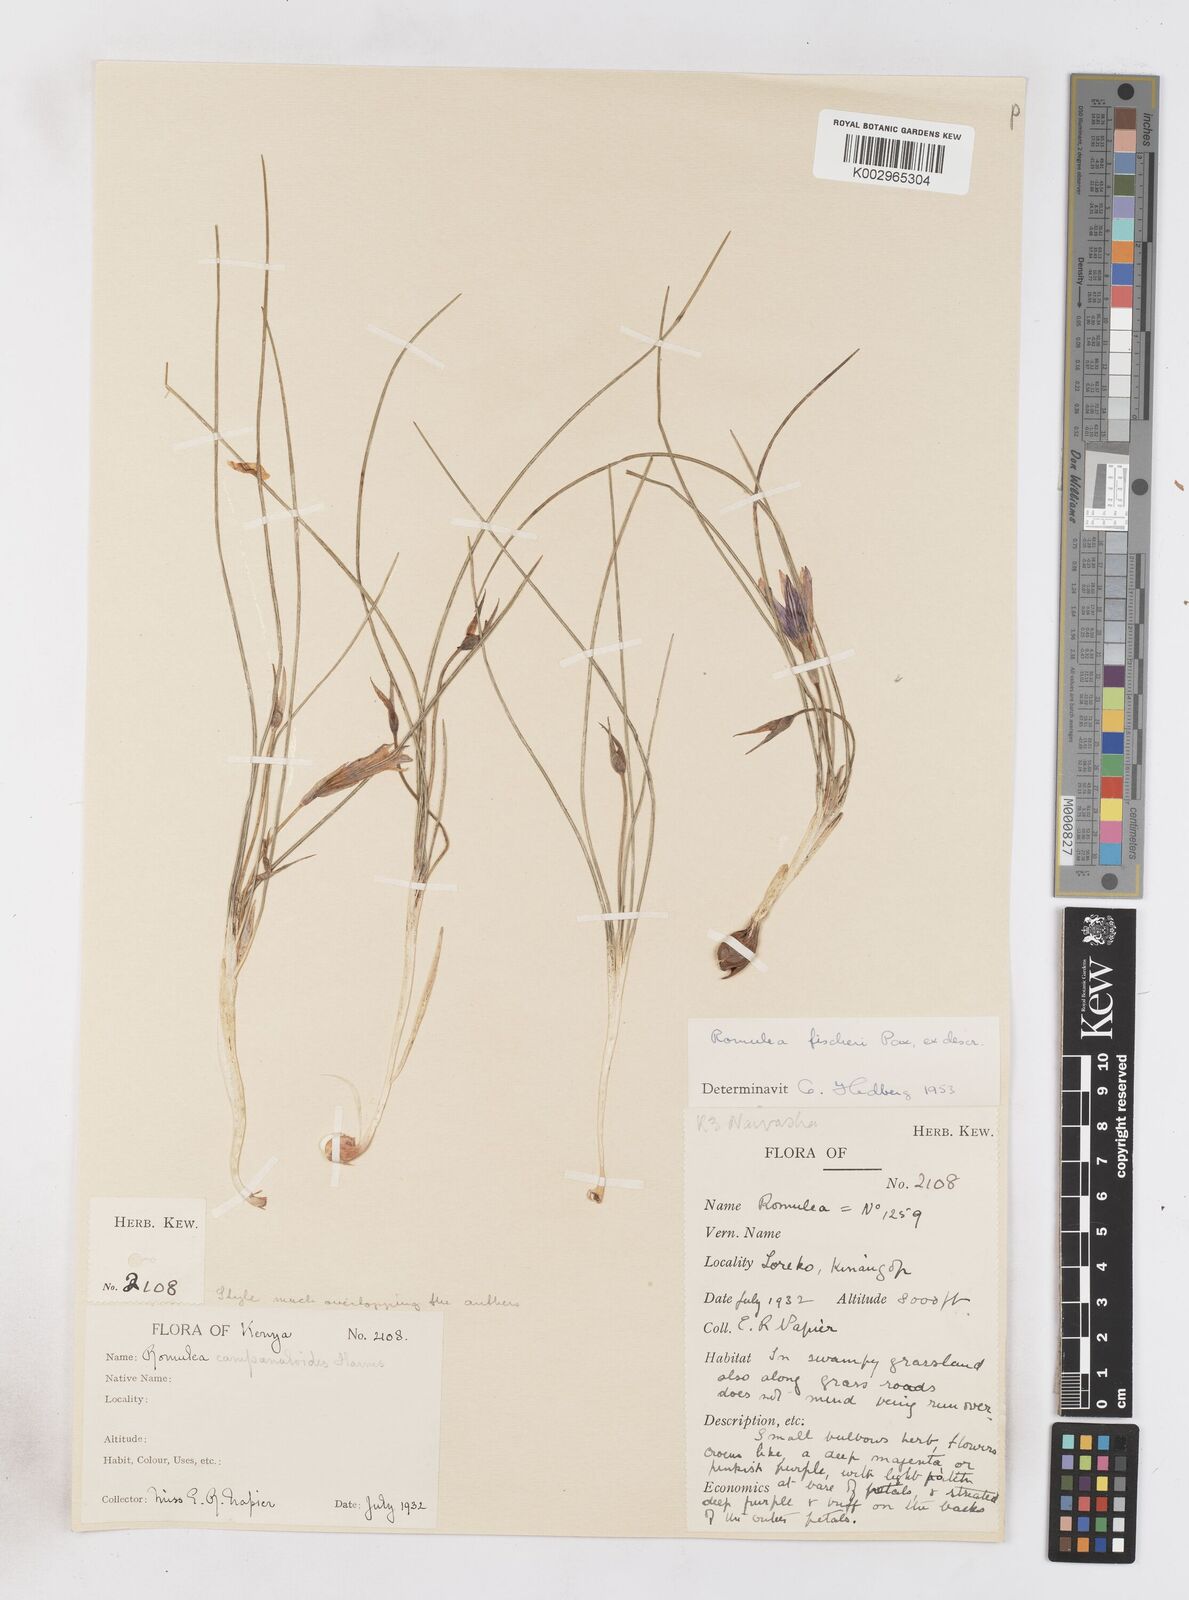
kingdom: Plantae
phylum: Tracheophyta
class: Liliopsida
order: Asparagales
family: Iridaceae
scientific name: Iridaceae
